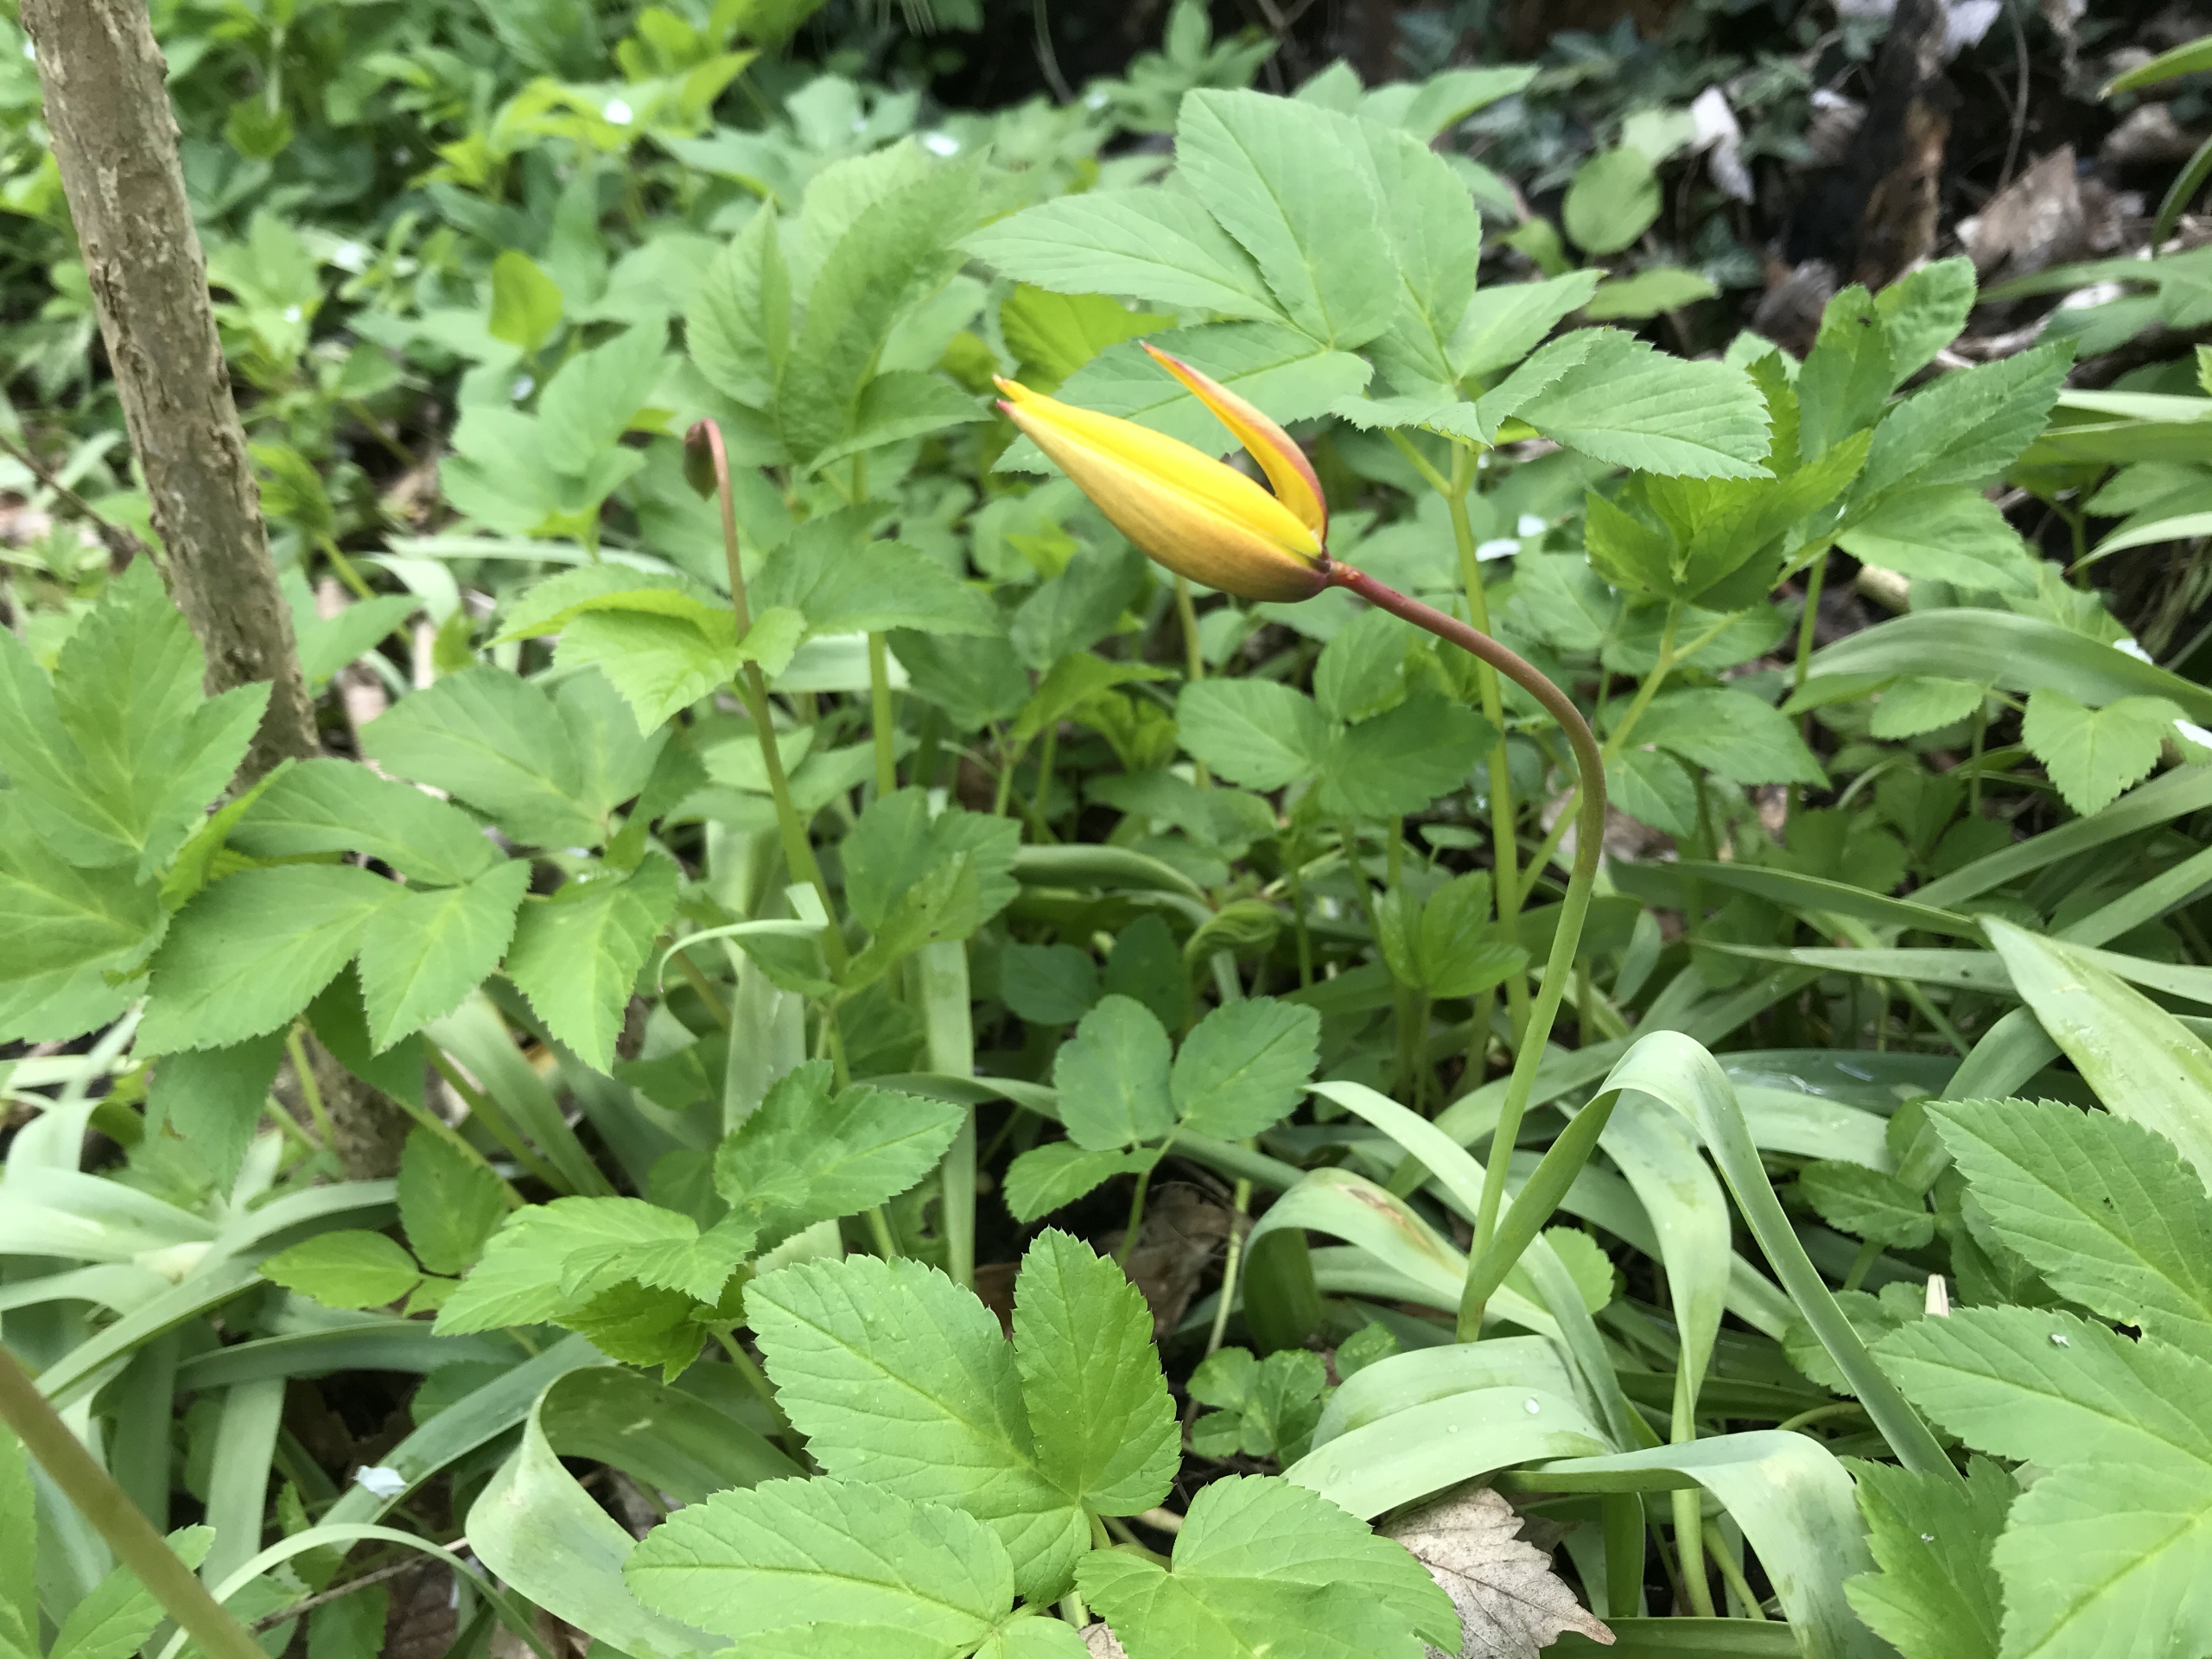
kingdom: Plantae
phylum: Tracheophyta
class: Liliopsida
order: Liliales
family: Liliaceae
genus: Tulipa
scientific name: Tulipa sylvestris
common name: Vild tulipan
